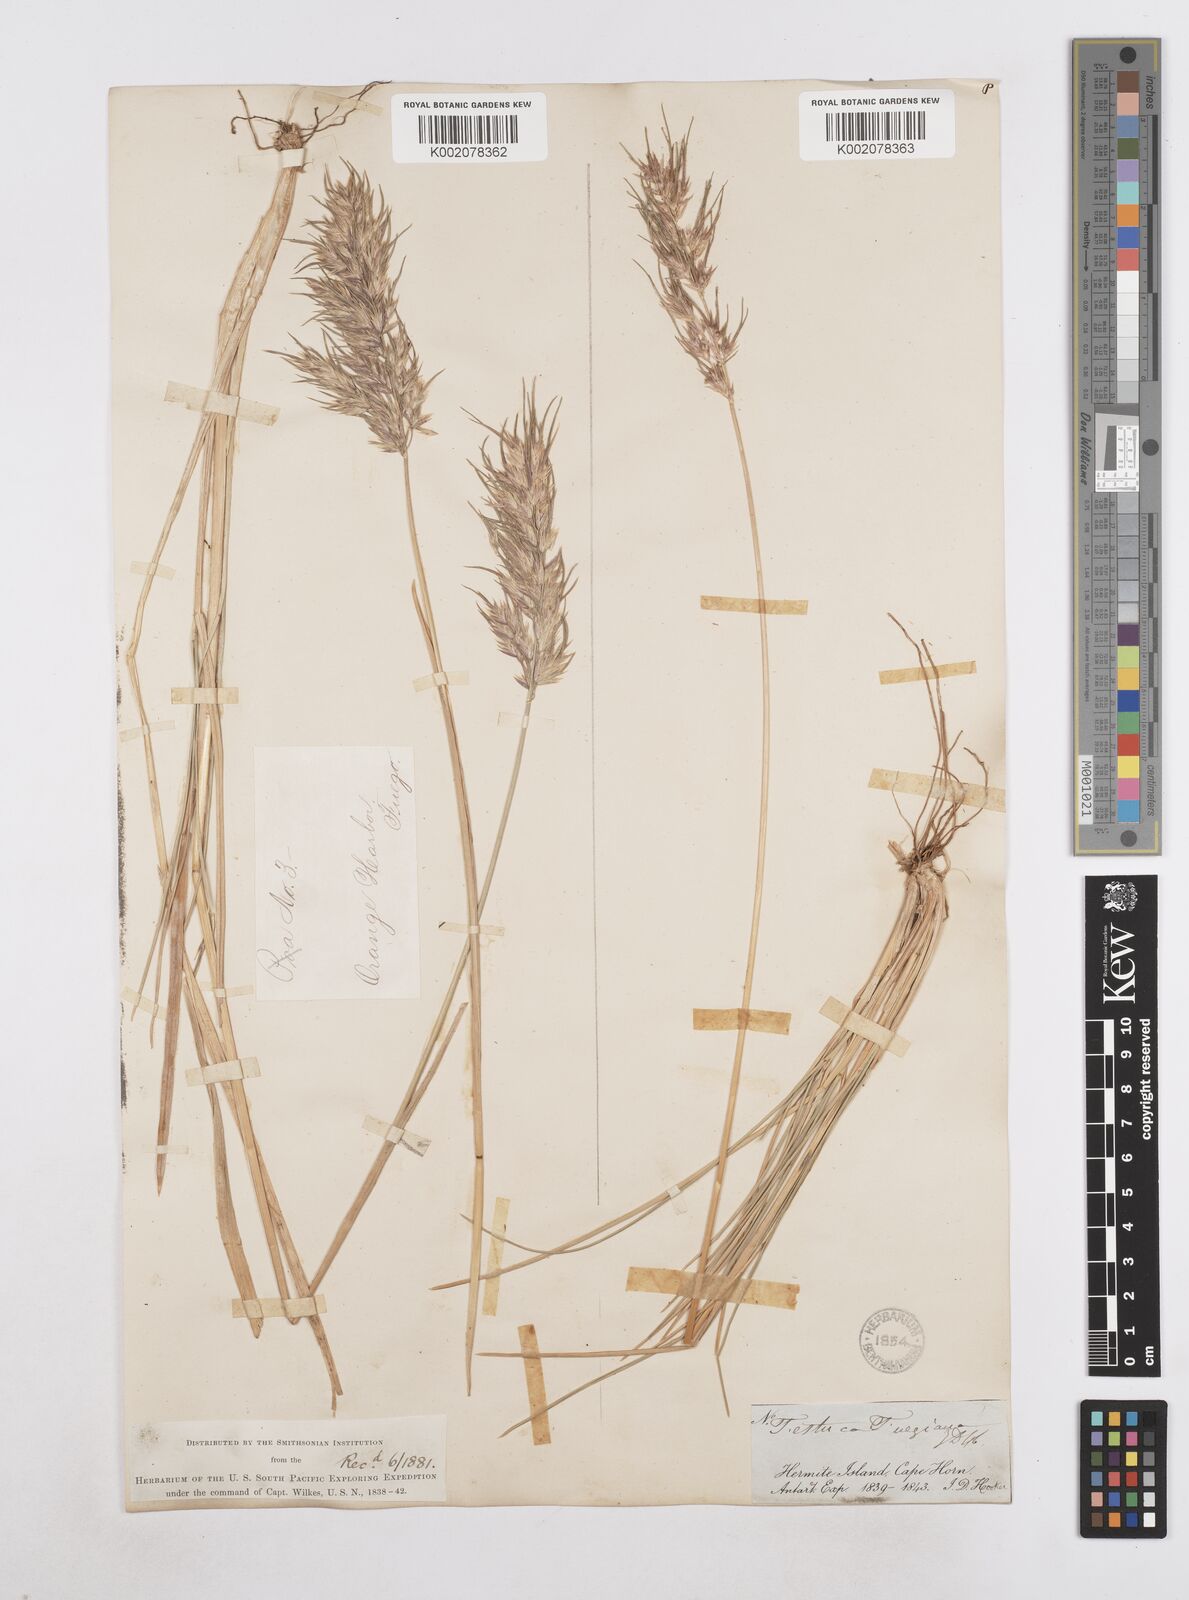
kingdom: Plantae
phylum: Tracheophyta
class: Liliopsida
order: Poales
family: Poaceae
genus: Poa
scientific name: Poa alopecurus
